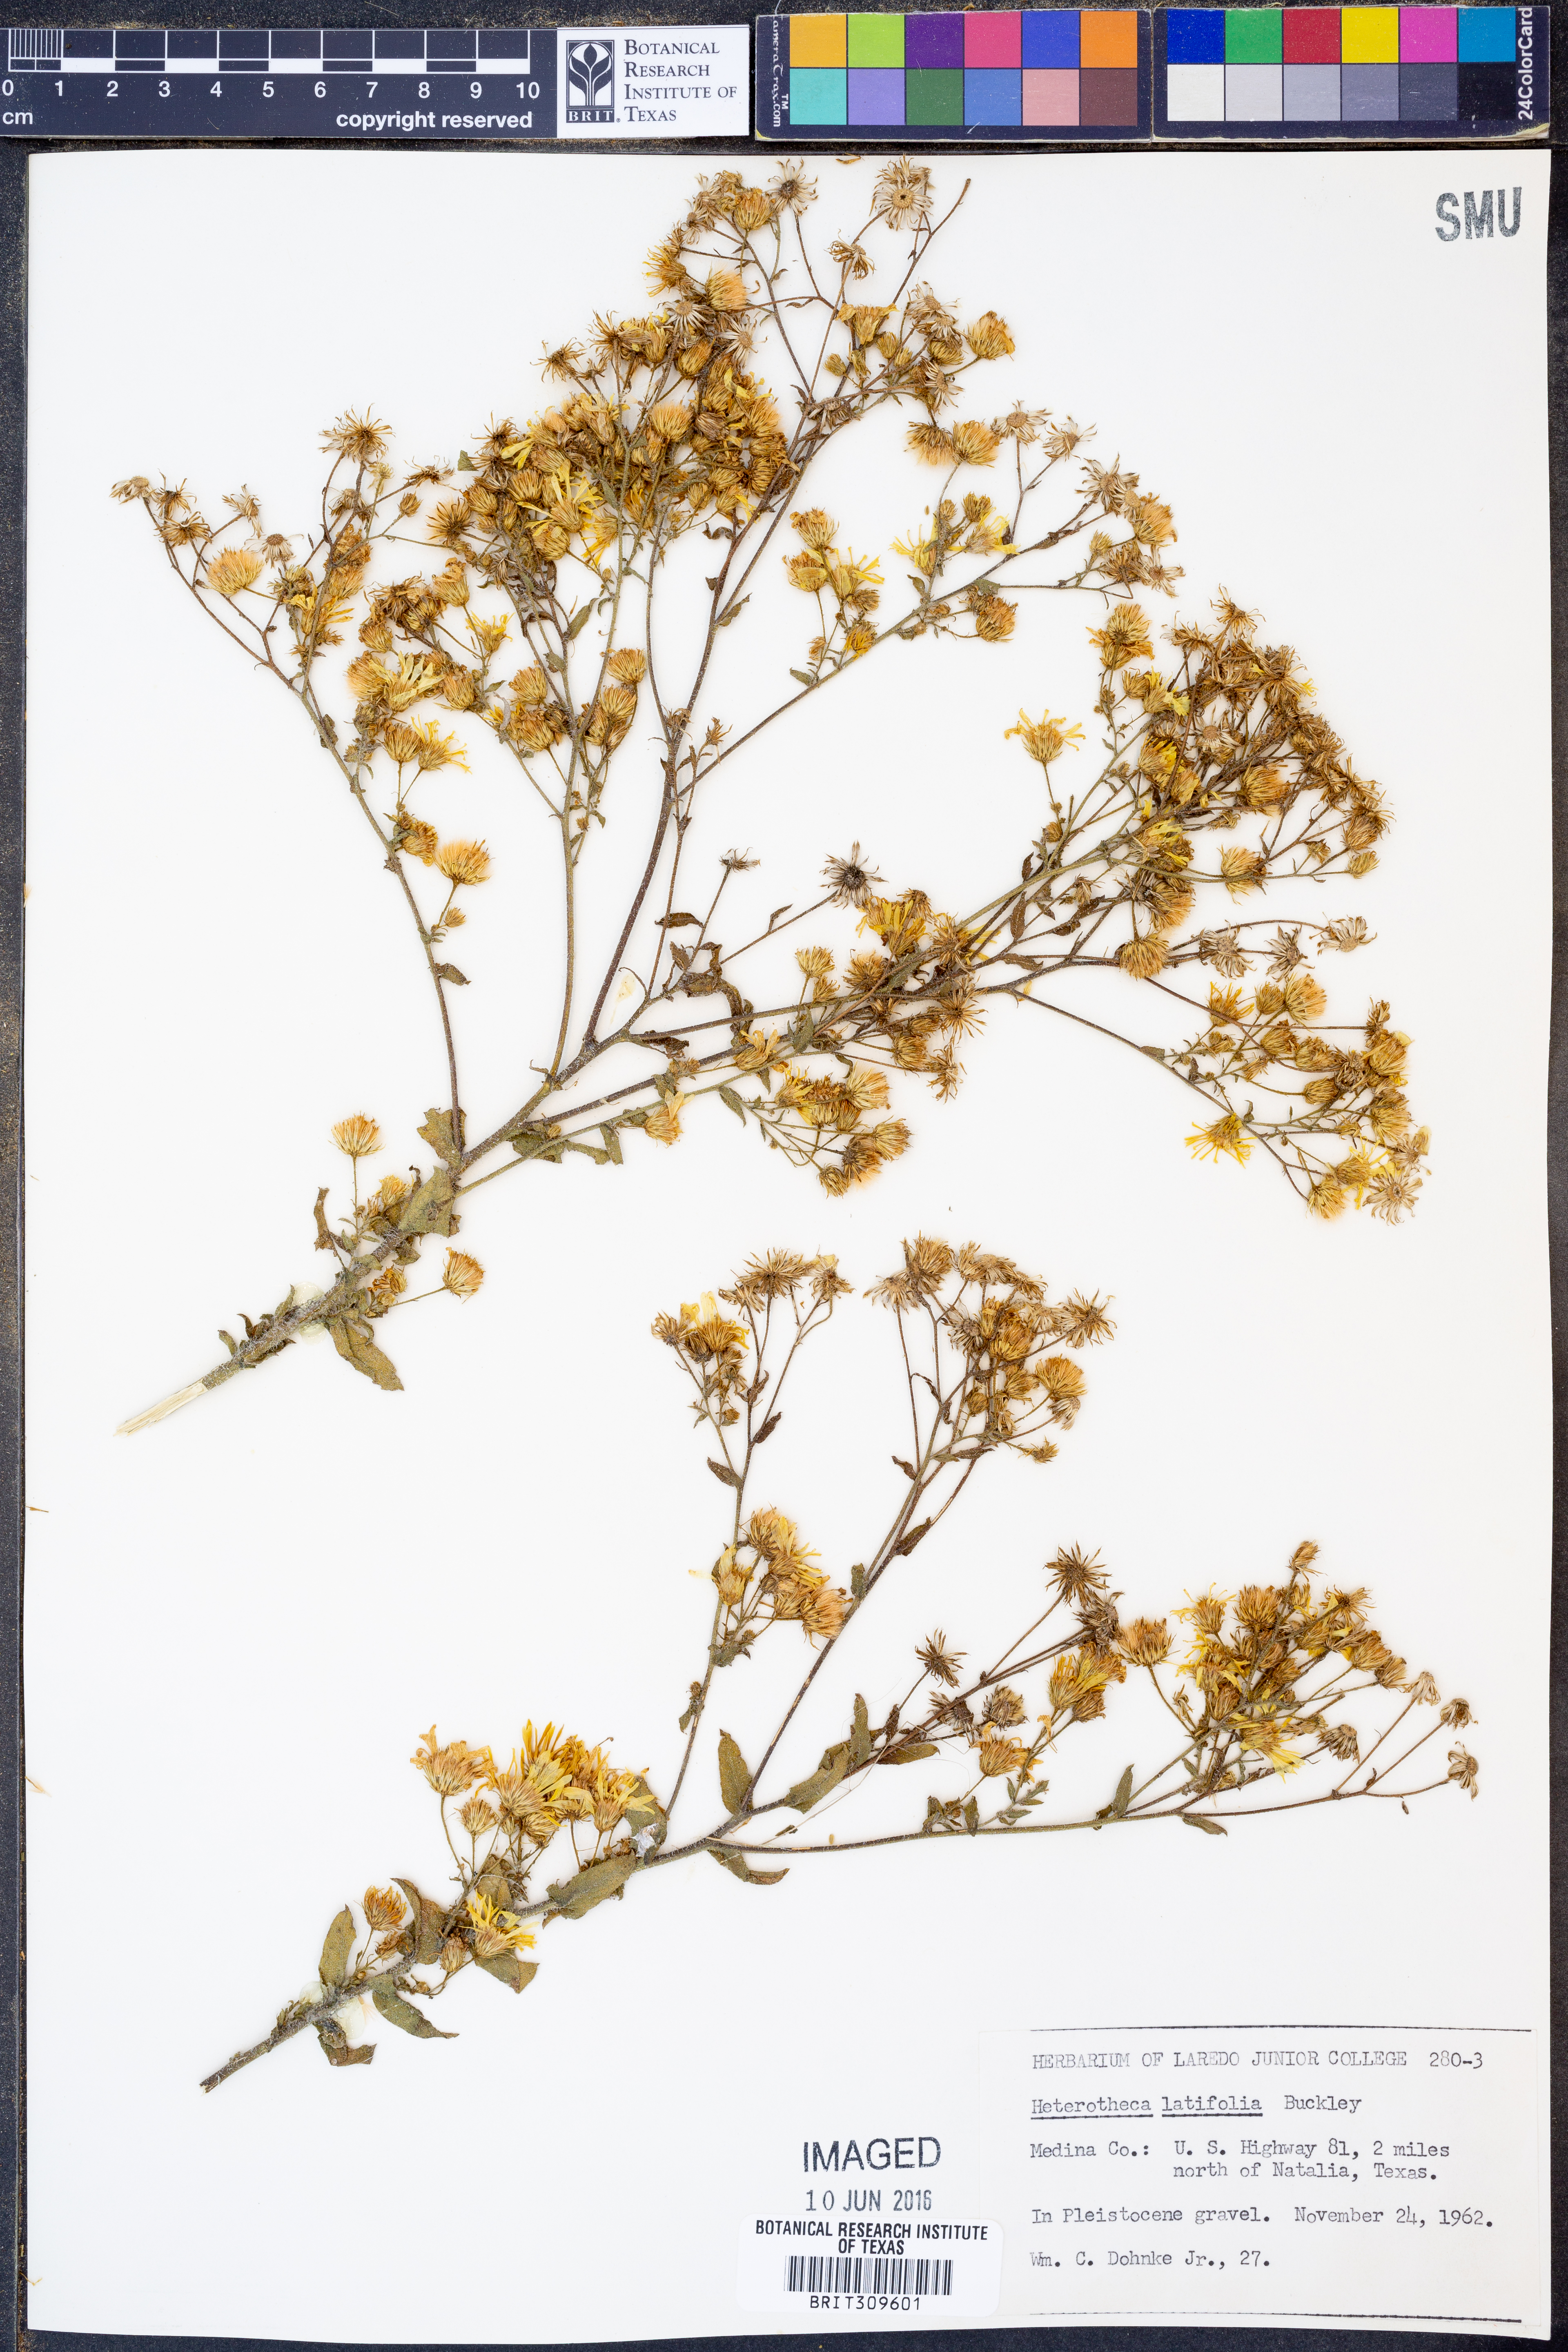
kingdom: Plantae
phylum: Tracheophyta
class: Magnoliopsida
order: Asterales
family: Asteraceae
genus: Heterotheca
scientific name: Heterotheca subaxillaris
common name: Camphorweed
